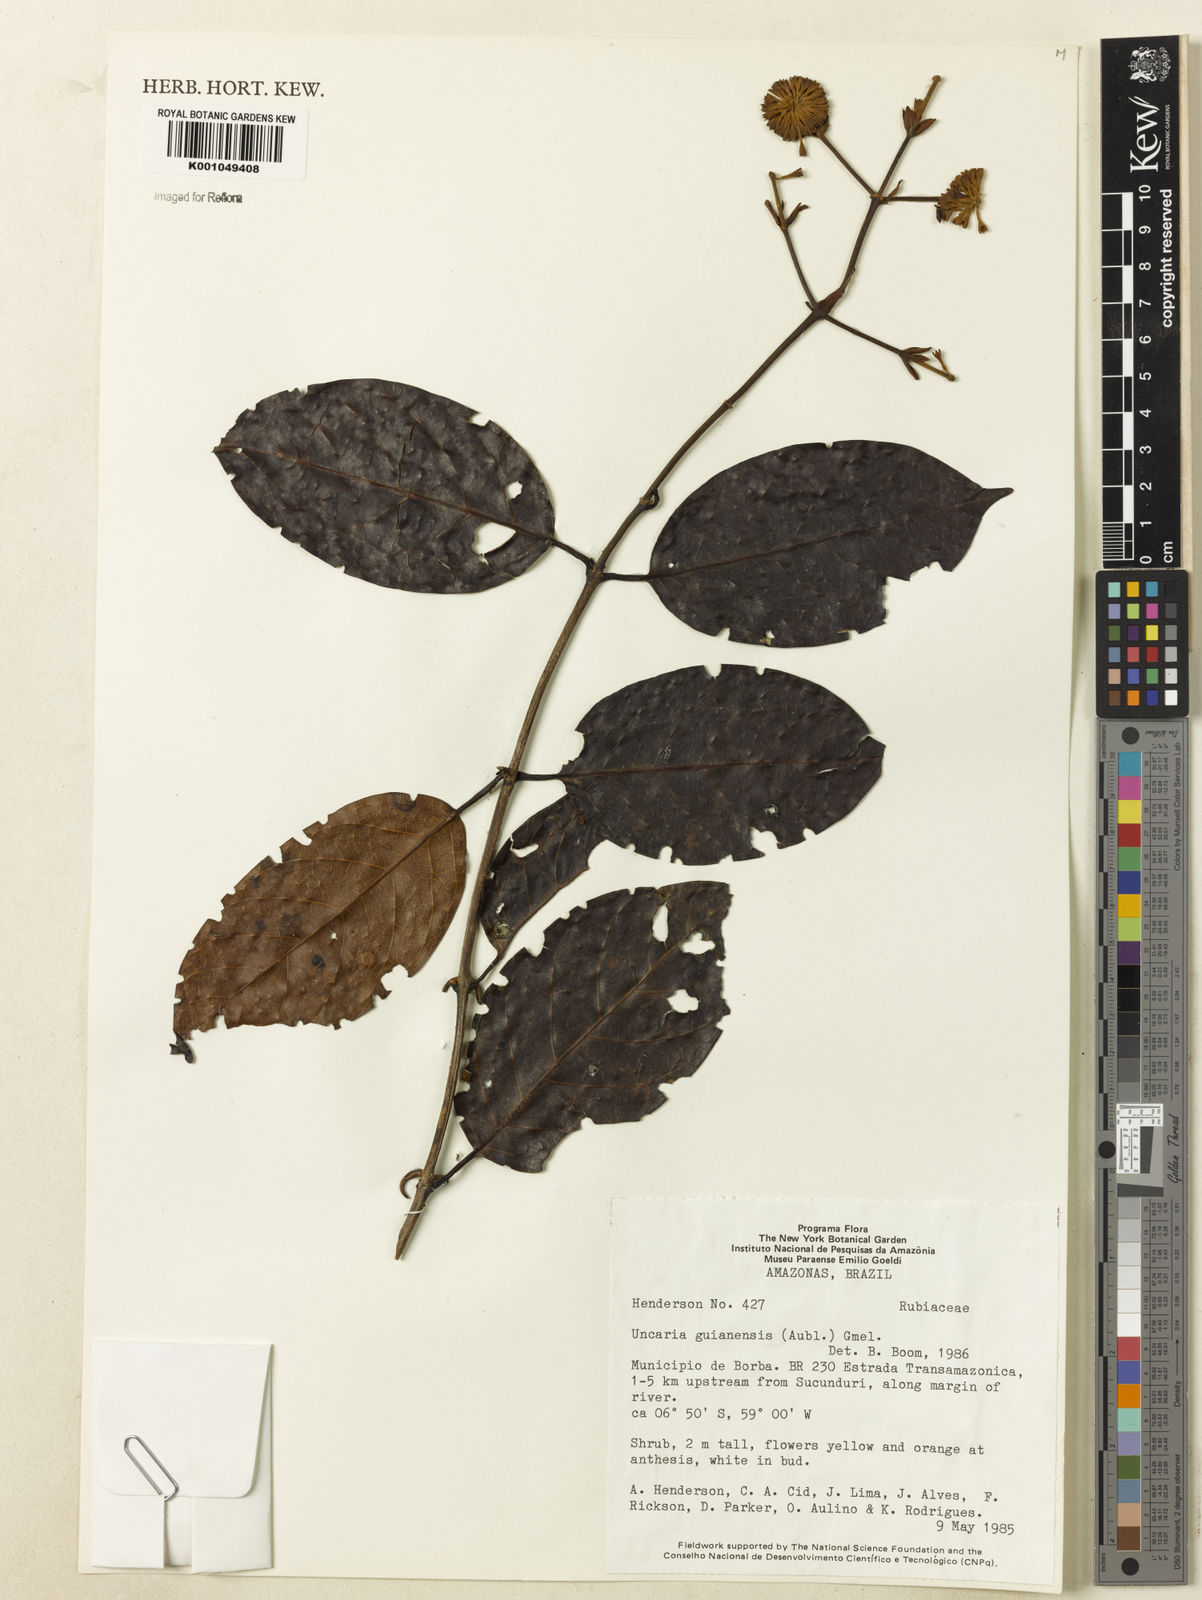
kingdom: Plantae
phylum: Tracheophyta
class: Magnoliopsida
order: Gentianales
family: Rubiaceae
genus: Uncaria
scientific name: Uncaria guianensis
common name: Cat's-claw
